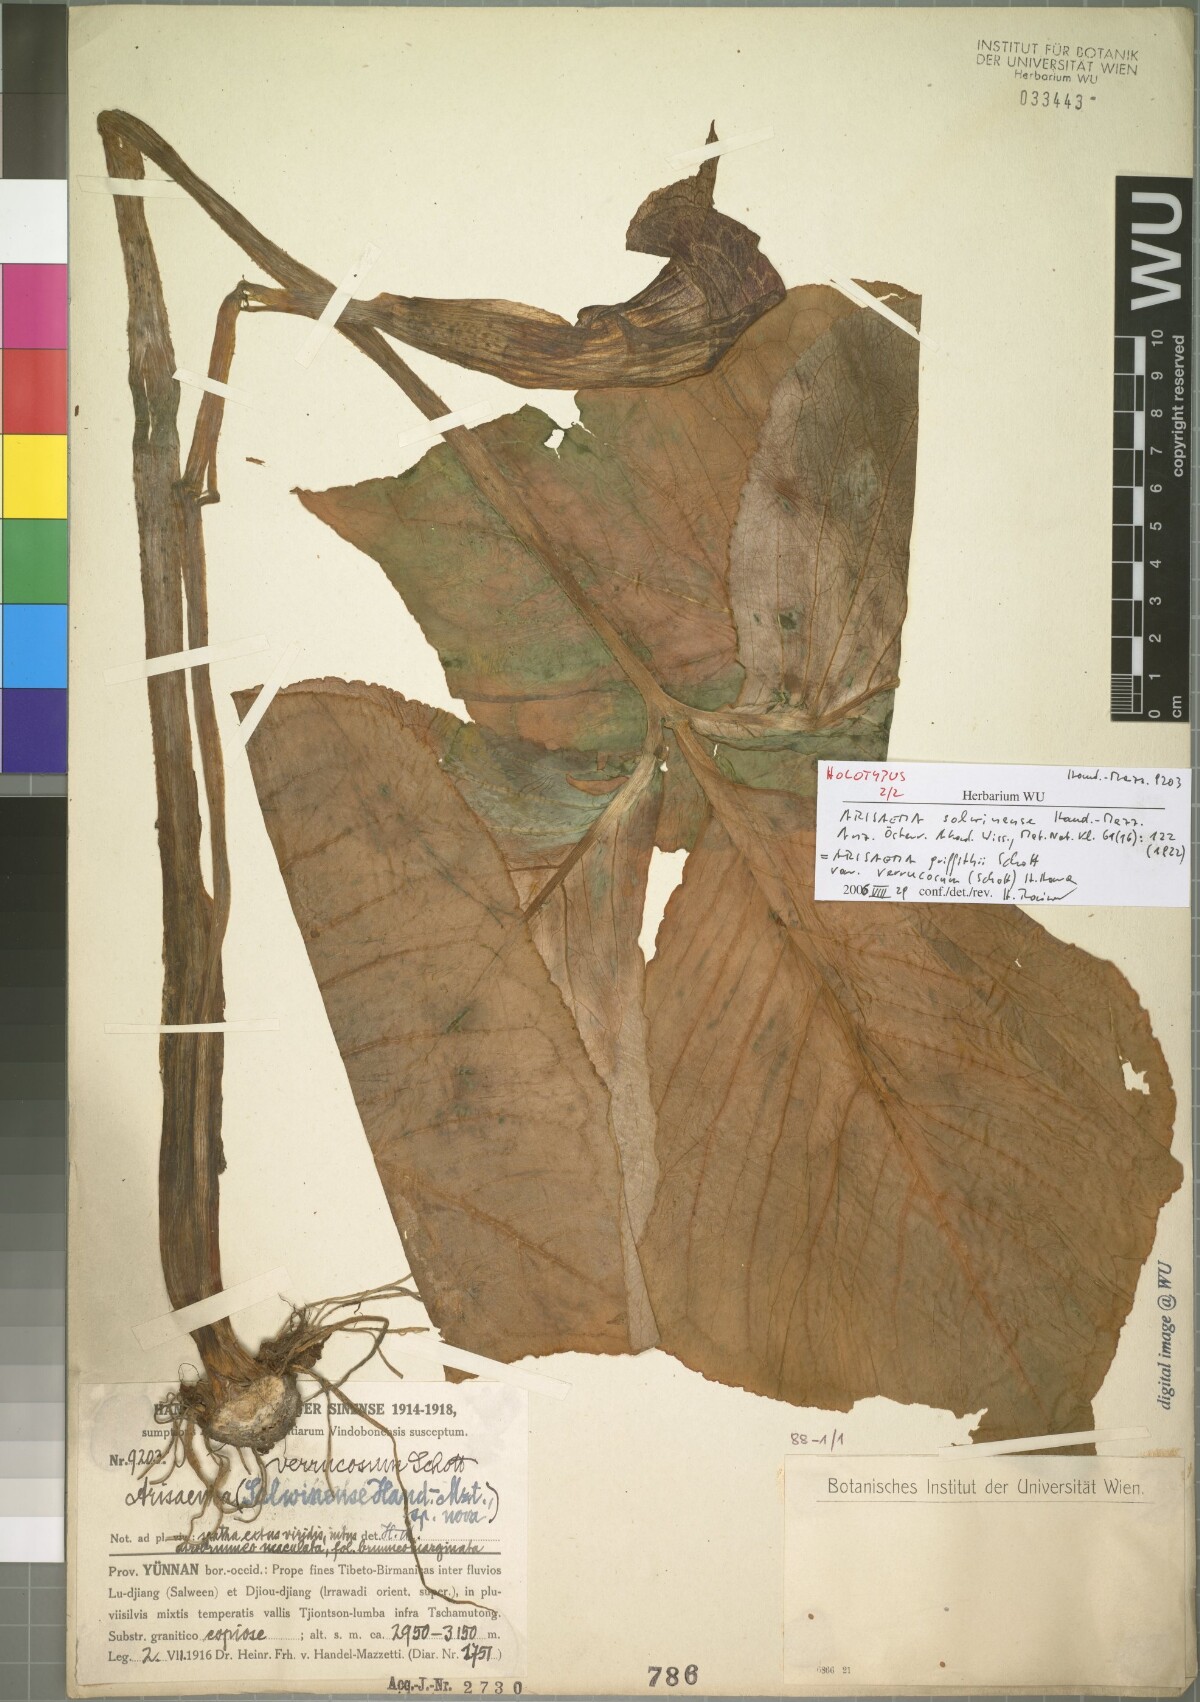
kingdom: Plantae
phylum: Tracheophyta
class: Liliopsida
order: Alismatales
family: Araceae
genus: Arisaema
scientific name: Arisaema bonatianum
